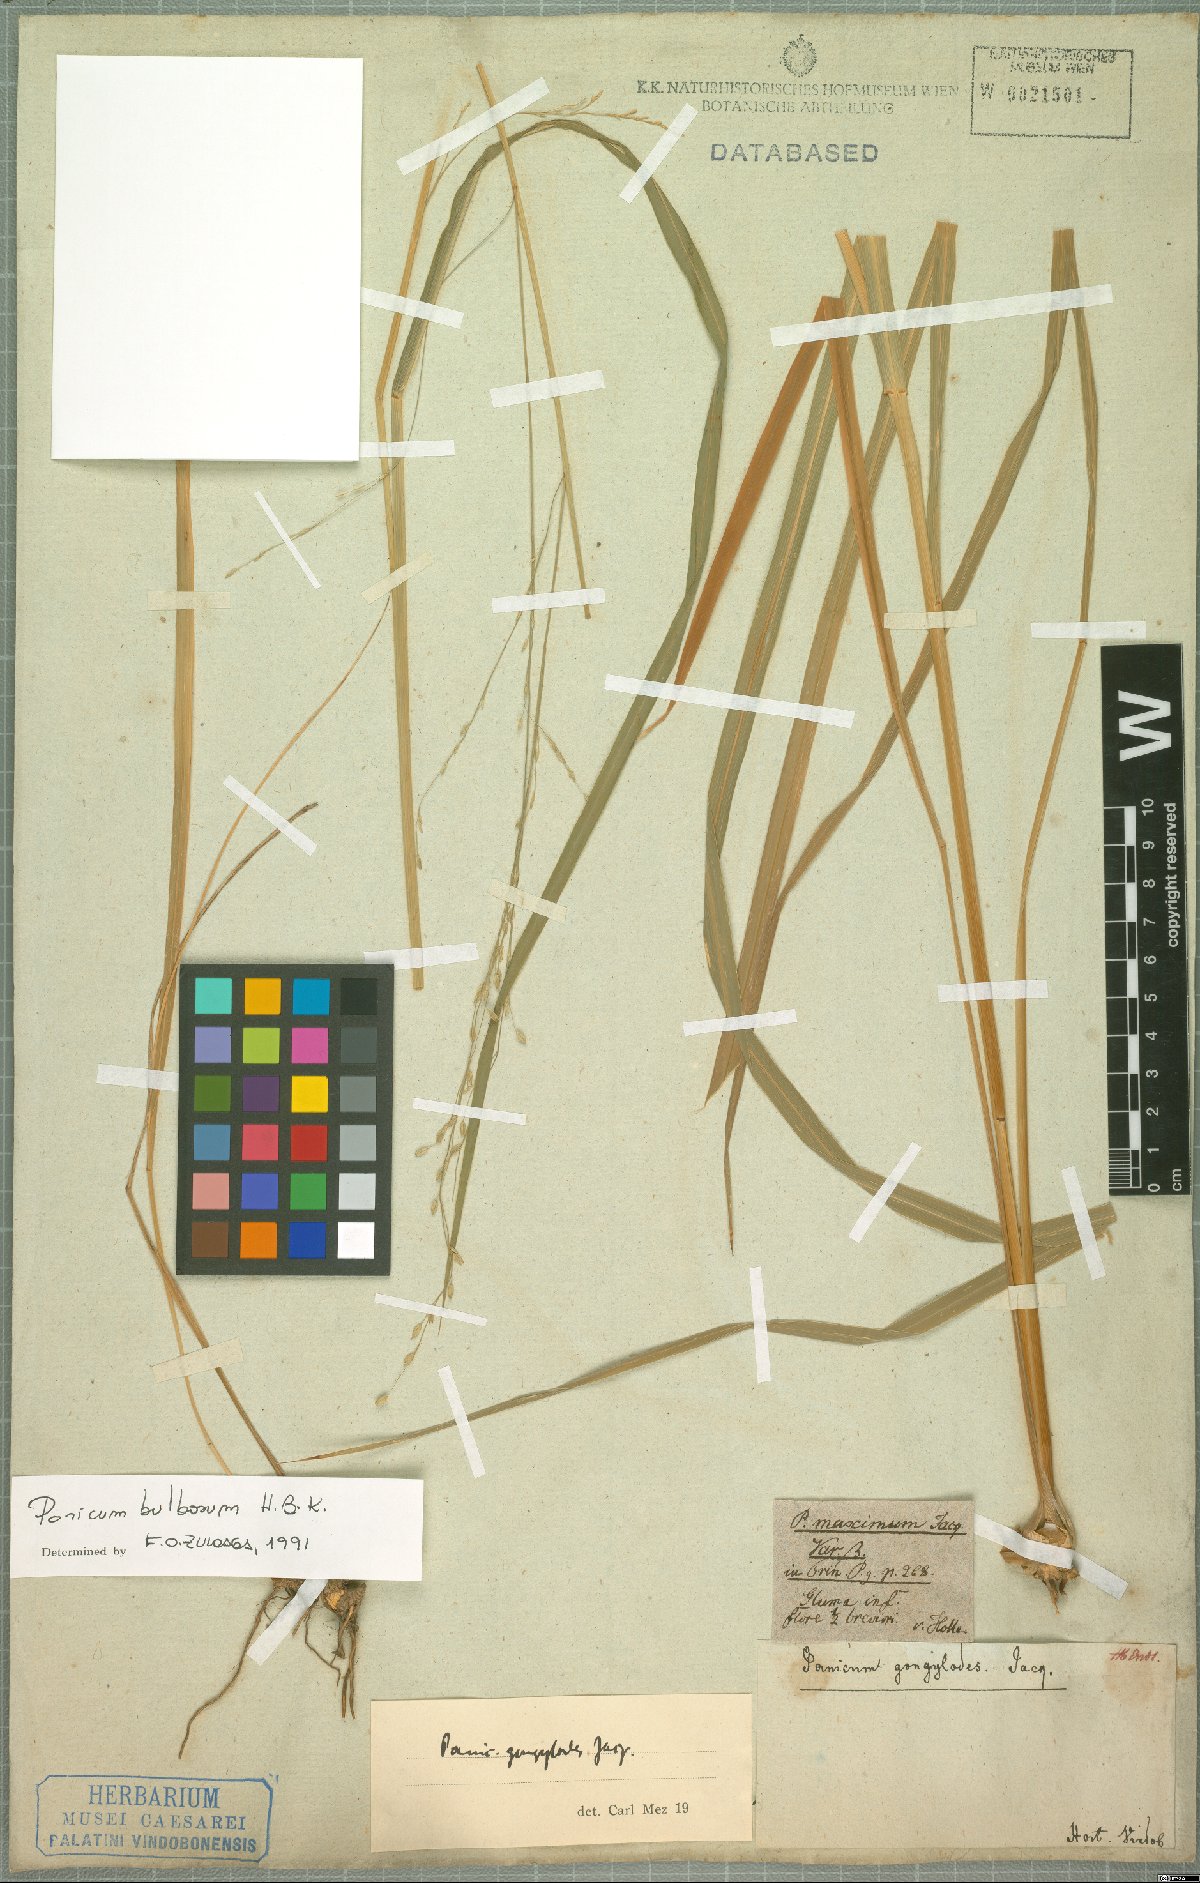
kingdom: Plantae
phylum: Tracheophyta
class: Liliopsida
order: Poales
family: Poaceae
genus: Zuloagaea
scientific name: Zuloagaea bulbosa
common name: Canyon panic grass
